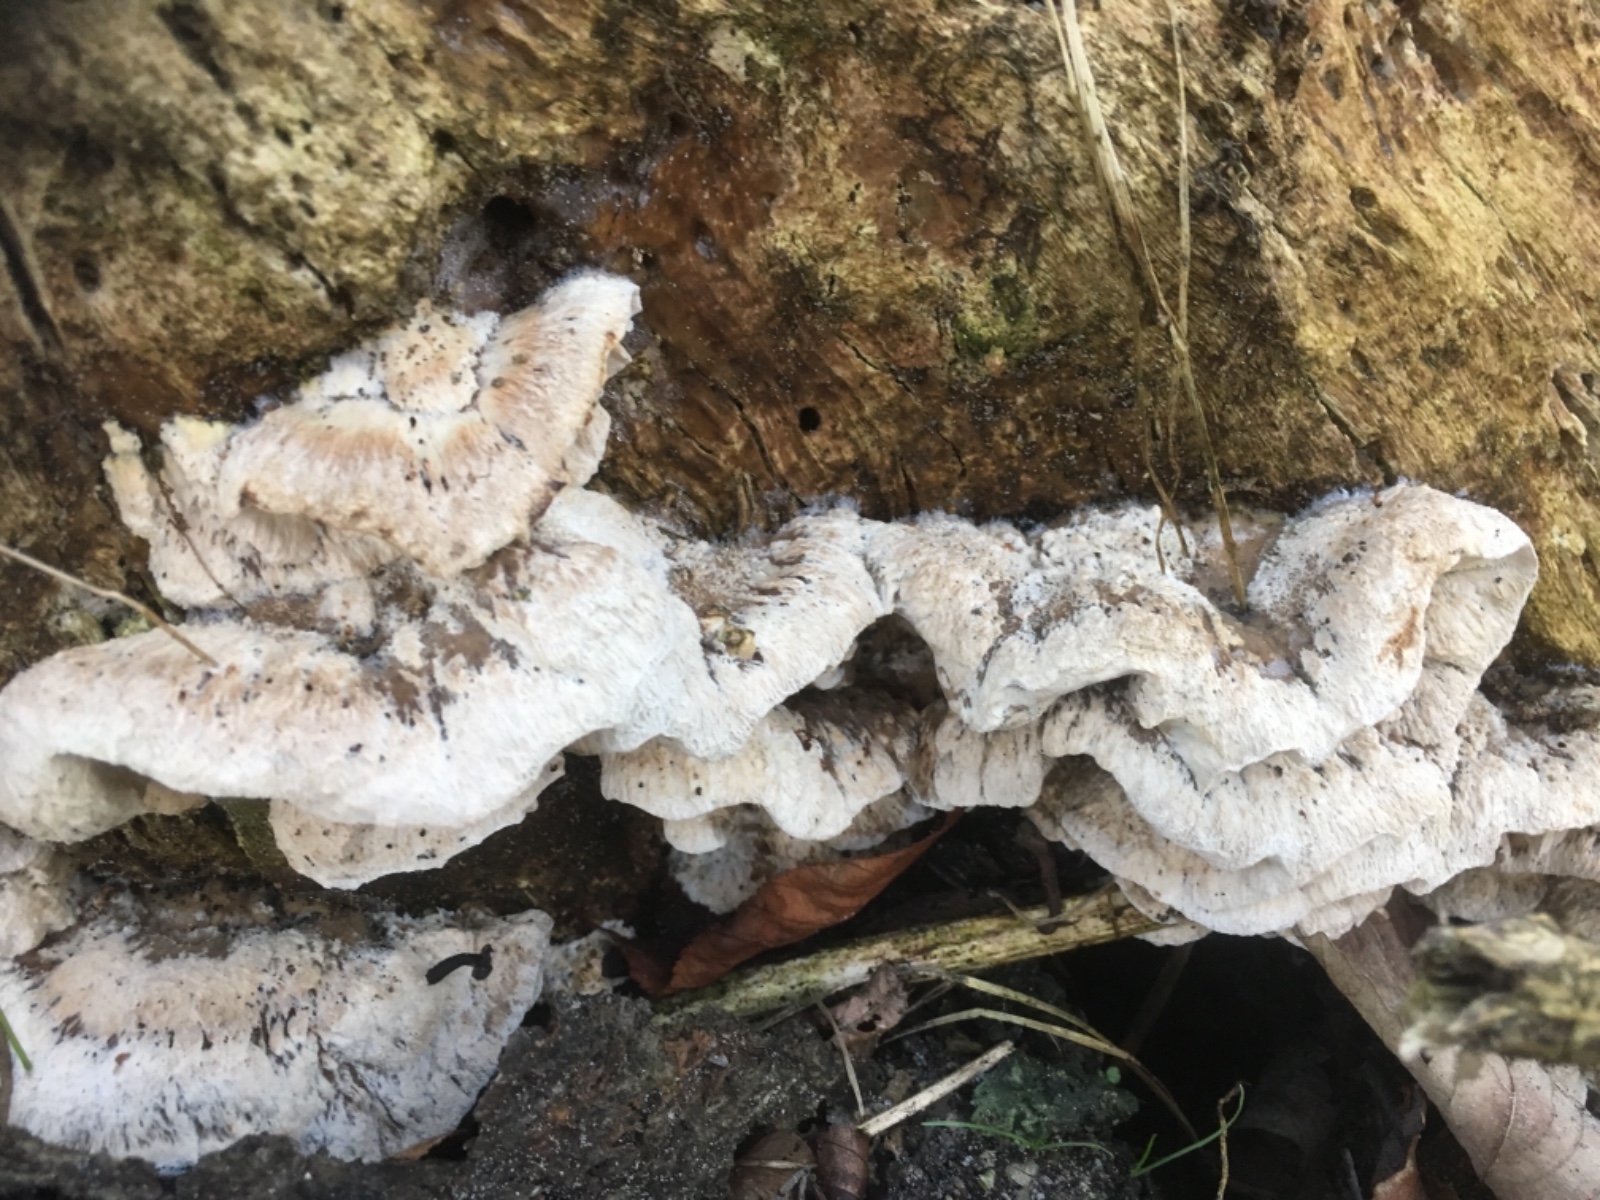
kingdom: Fungi
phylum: Basidiomycota
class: Agaricomycetes
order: Polyporales
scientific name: Polyporales
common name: poresvampordenen
